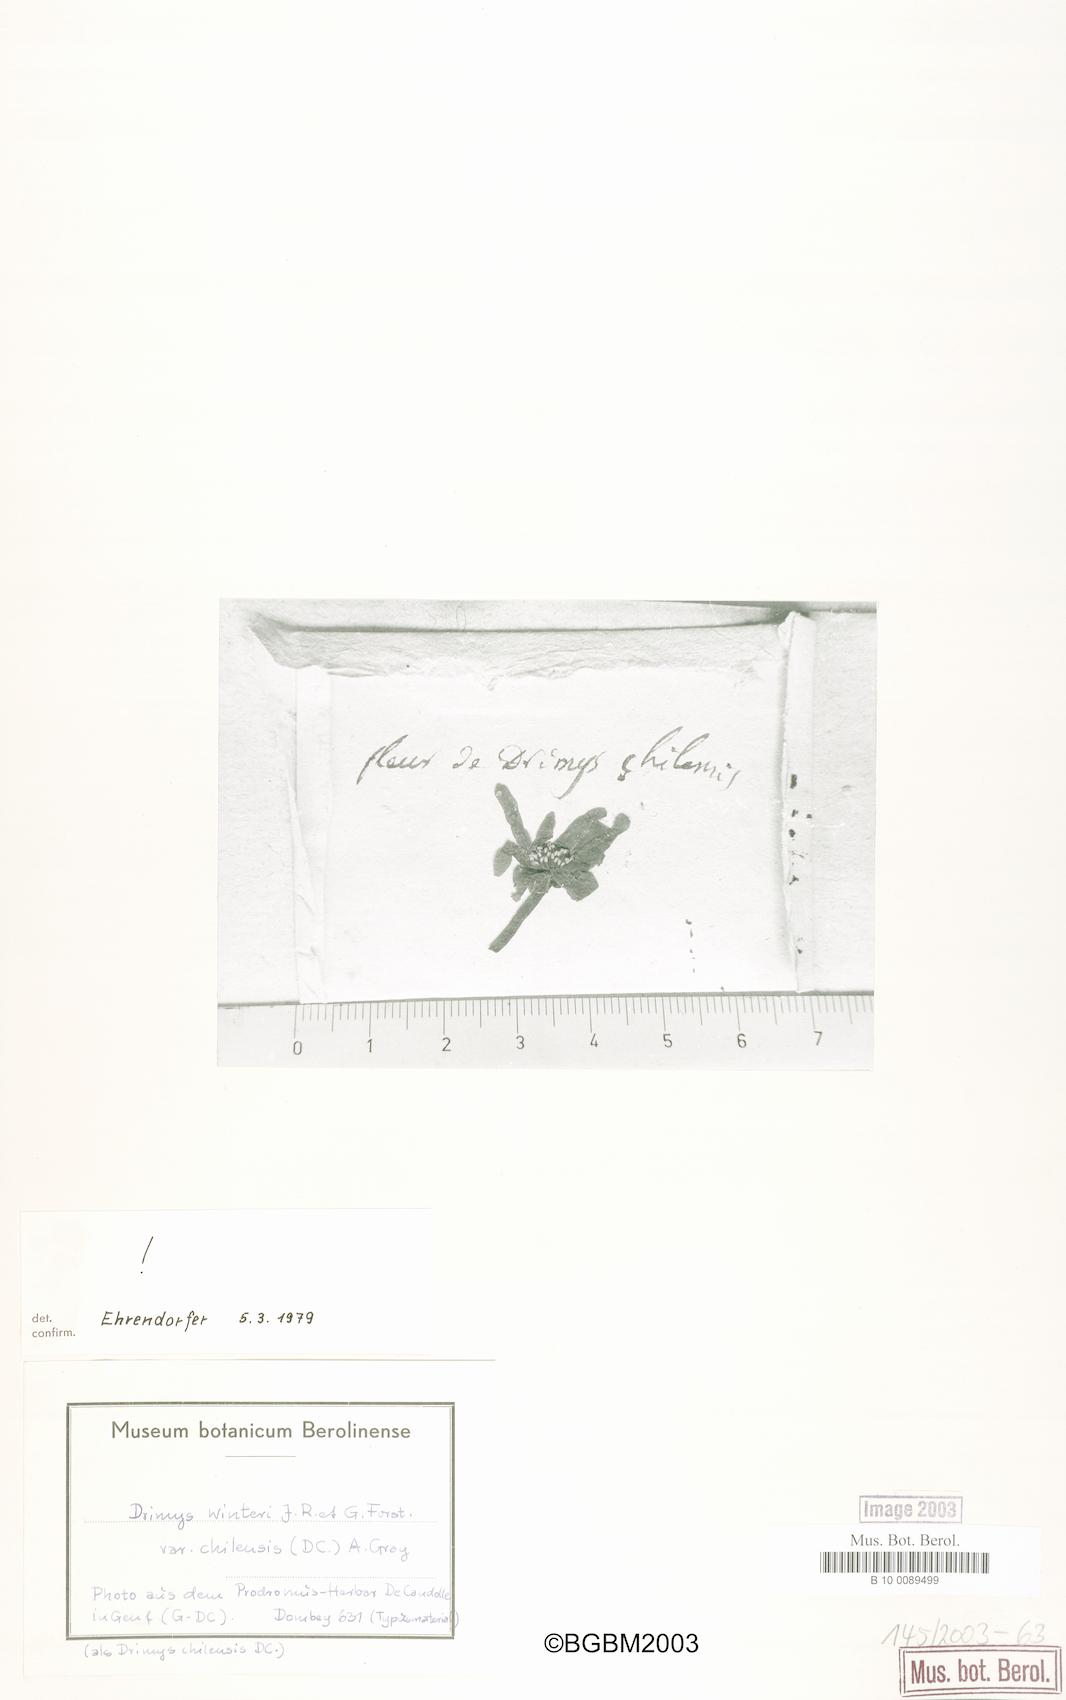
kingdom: Plantae
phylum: Tracheophyta
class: Magnoliopsida
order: Canellales
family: Winteraceae
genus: Drimys
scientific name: Drimys winteri
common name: Winter's-bark
